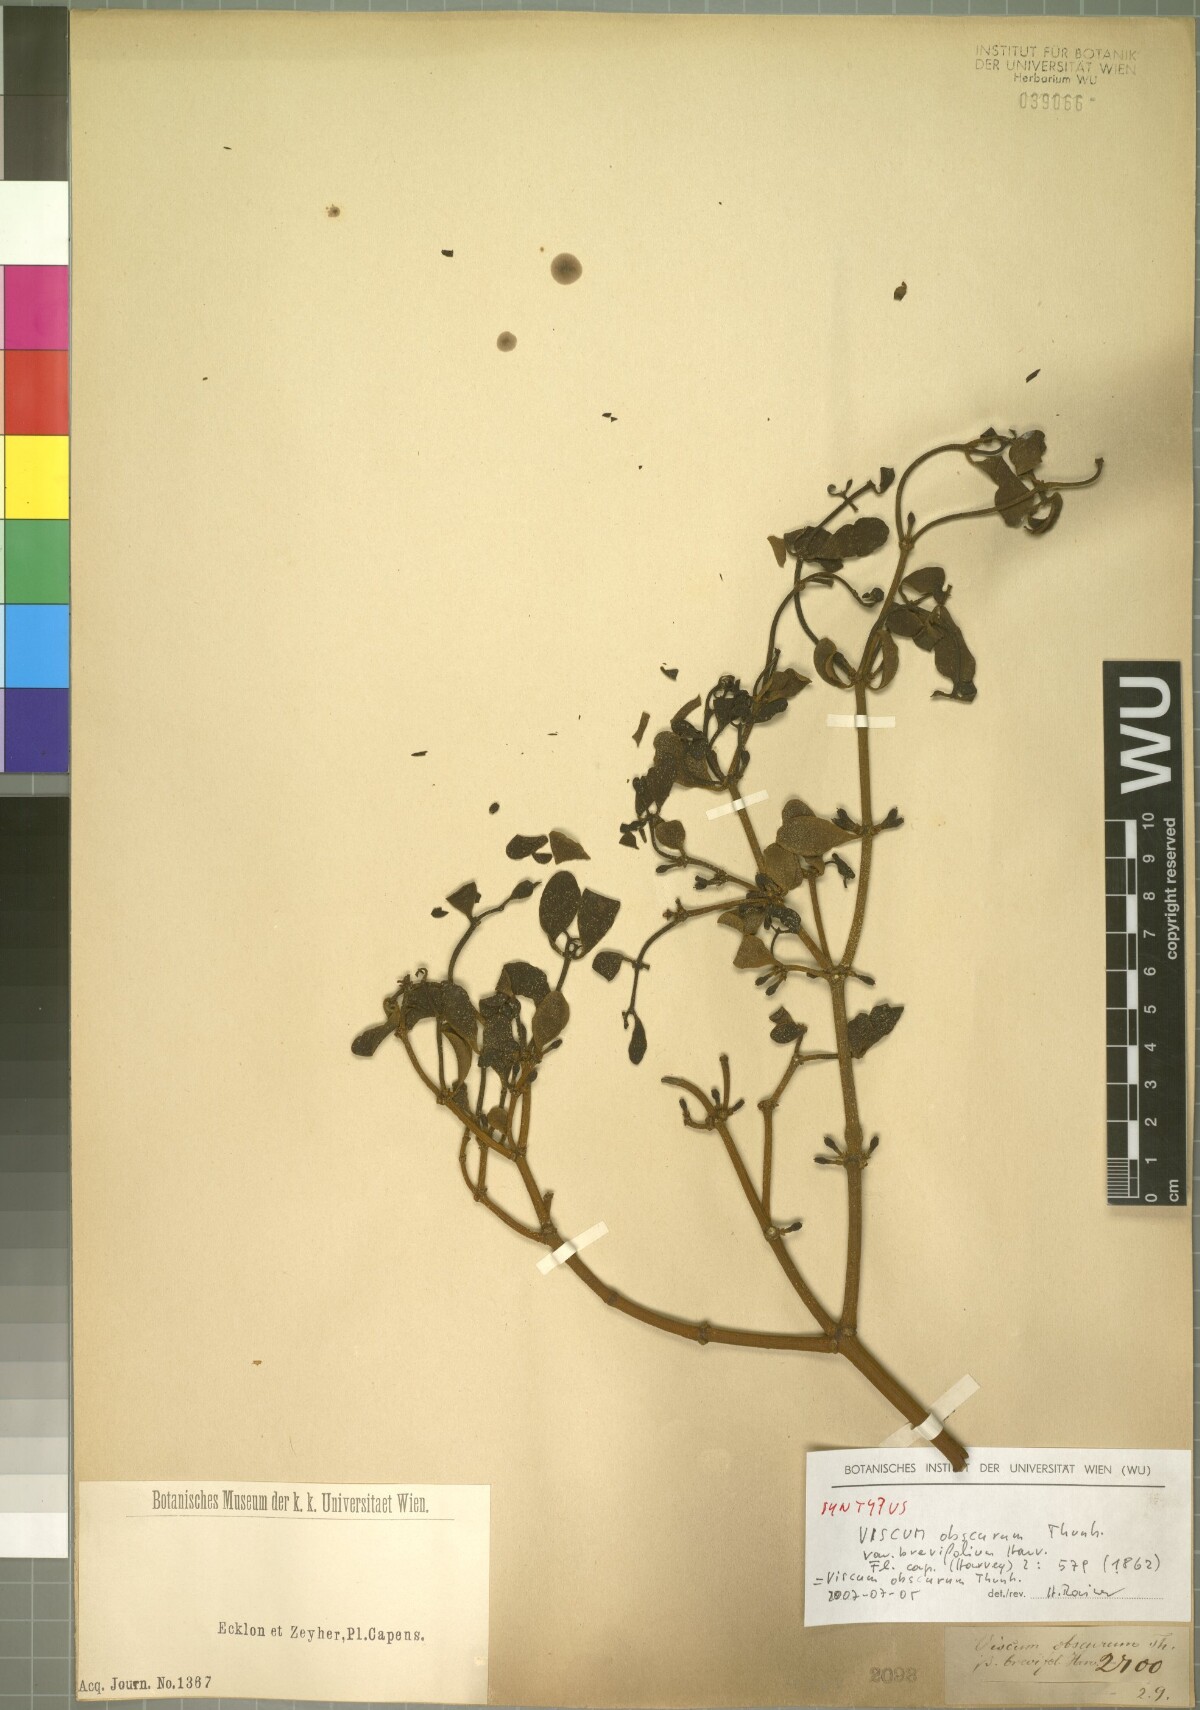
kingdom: Plantae
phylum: Tracheophyta
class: Magnoliopsida
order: Santalales
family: Viscaceae
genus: Viscum
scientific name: Viscum obscurum
